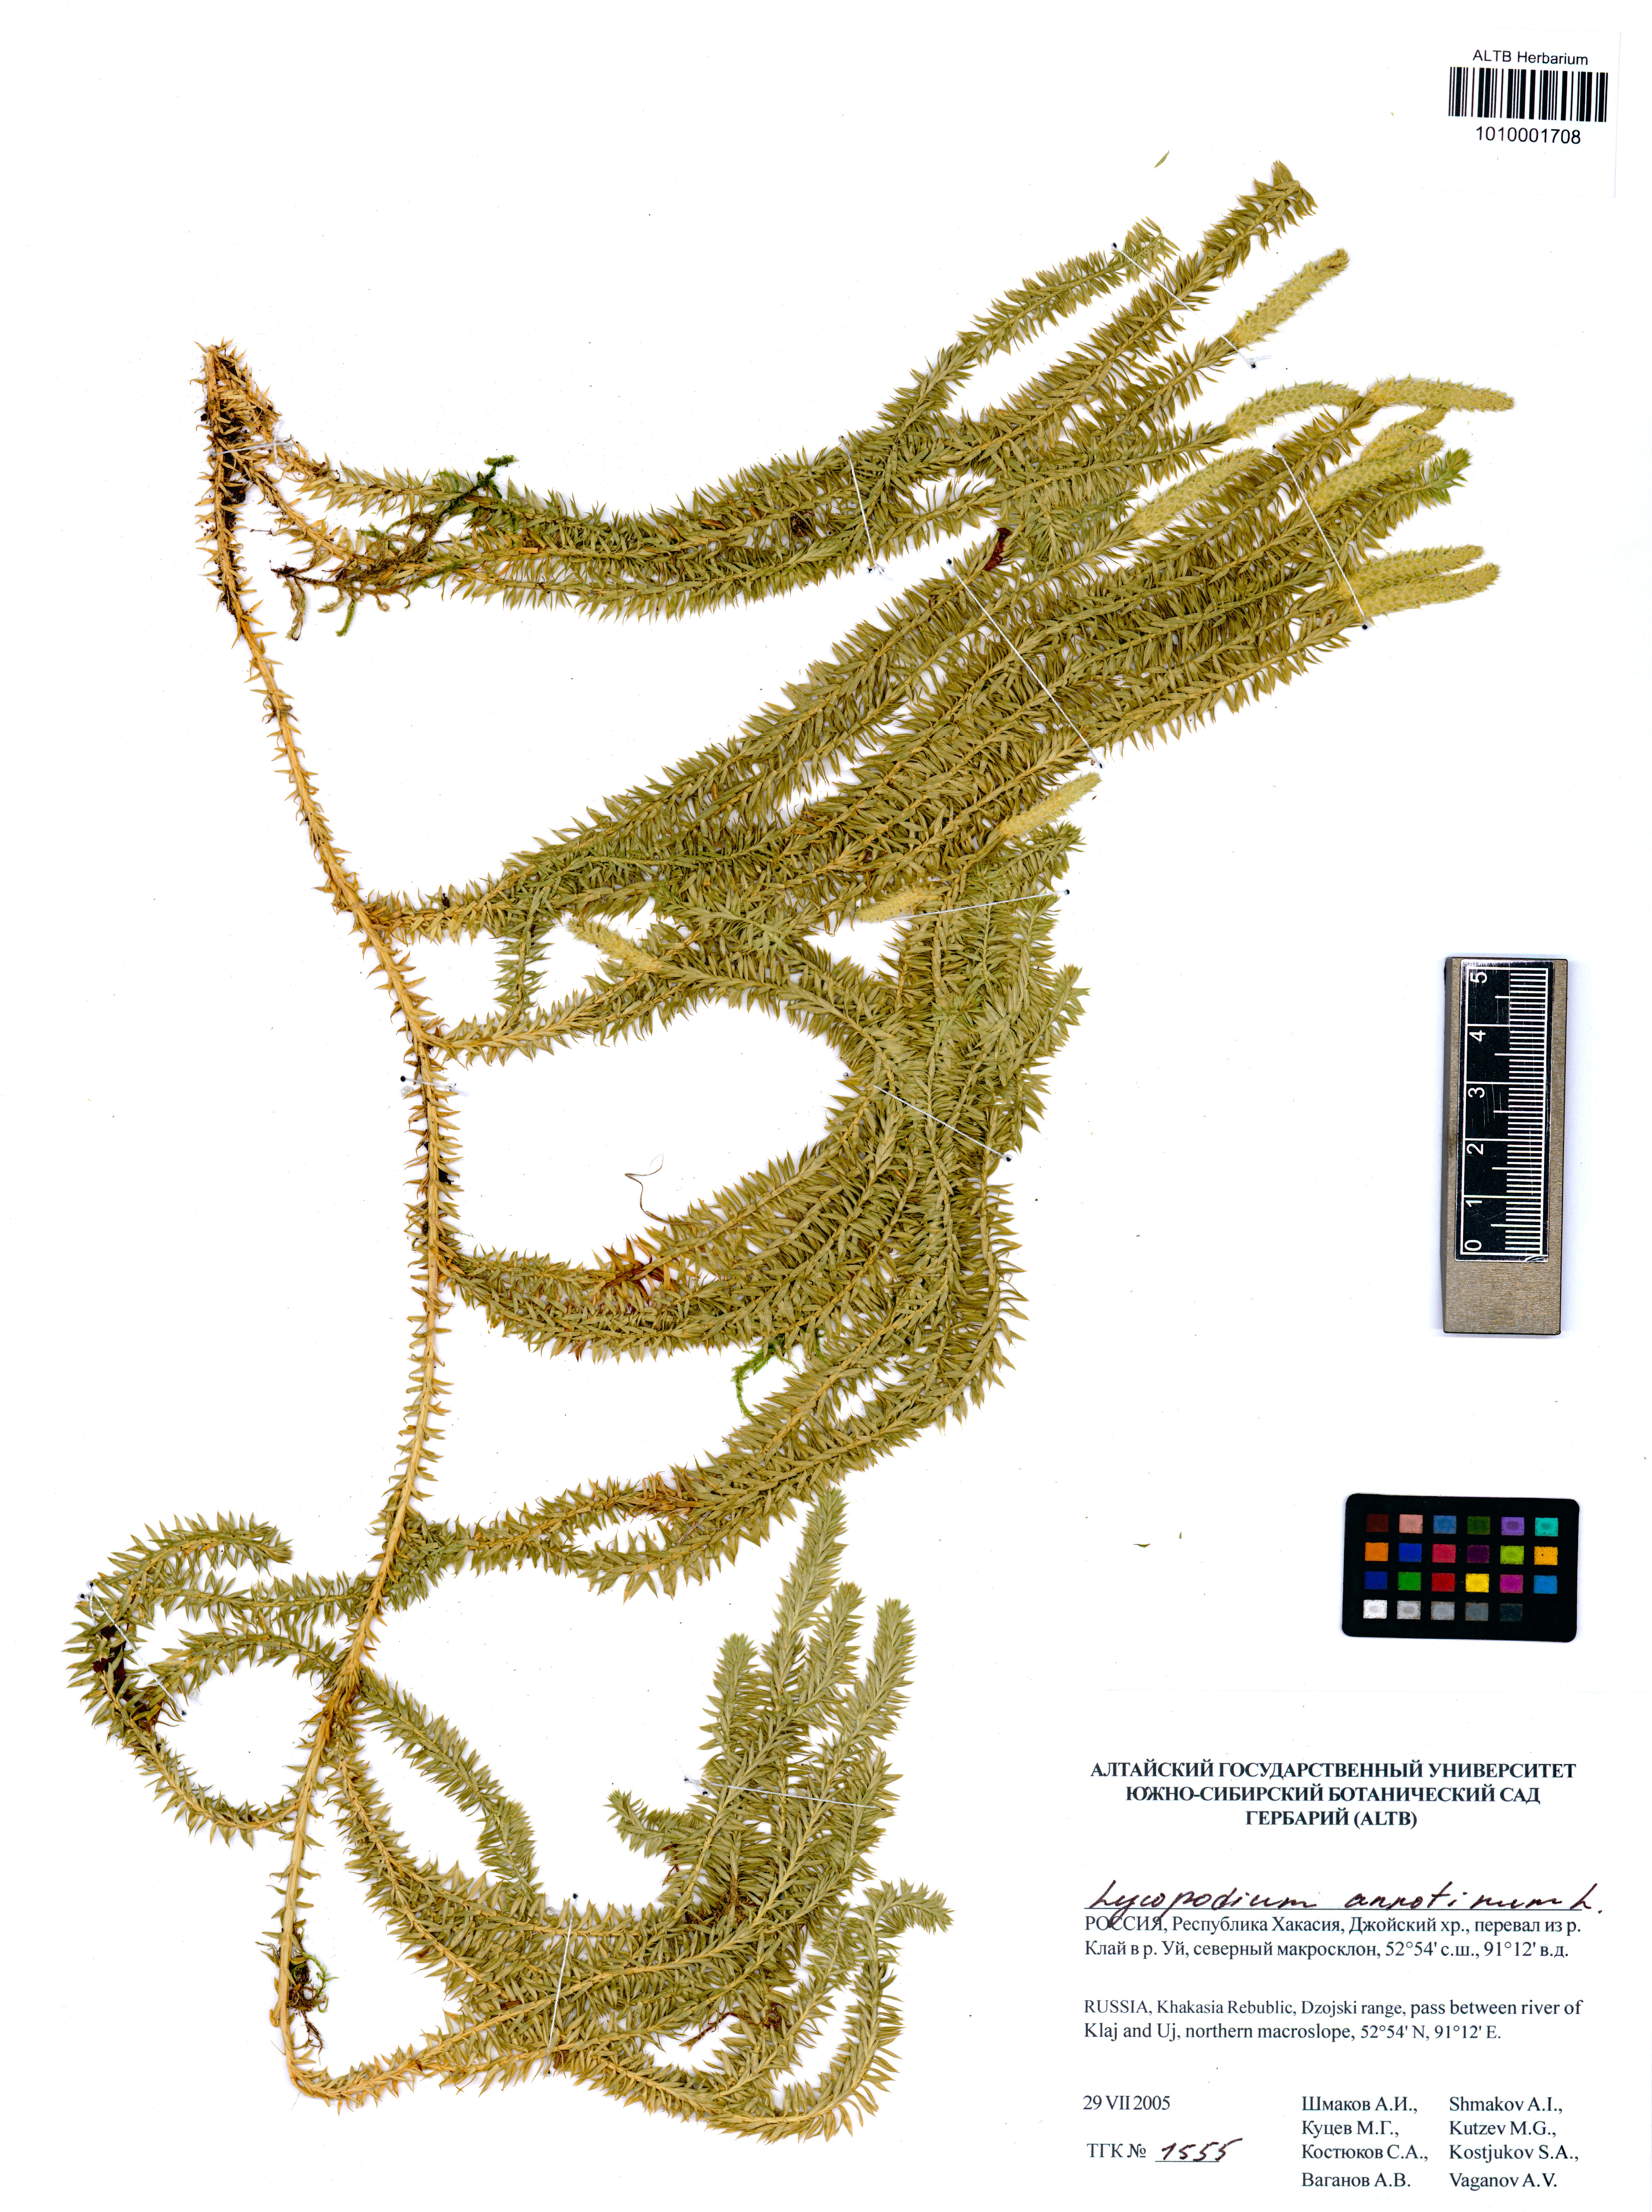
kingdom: Plantae
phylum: Tracheophyta
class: Lycopodiopsida
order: Lycopodiales
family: Lycopodiaceae
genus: Spinulum
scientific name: Spinulum annotinum
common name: Interrupted club-moss
